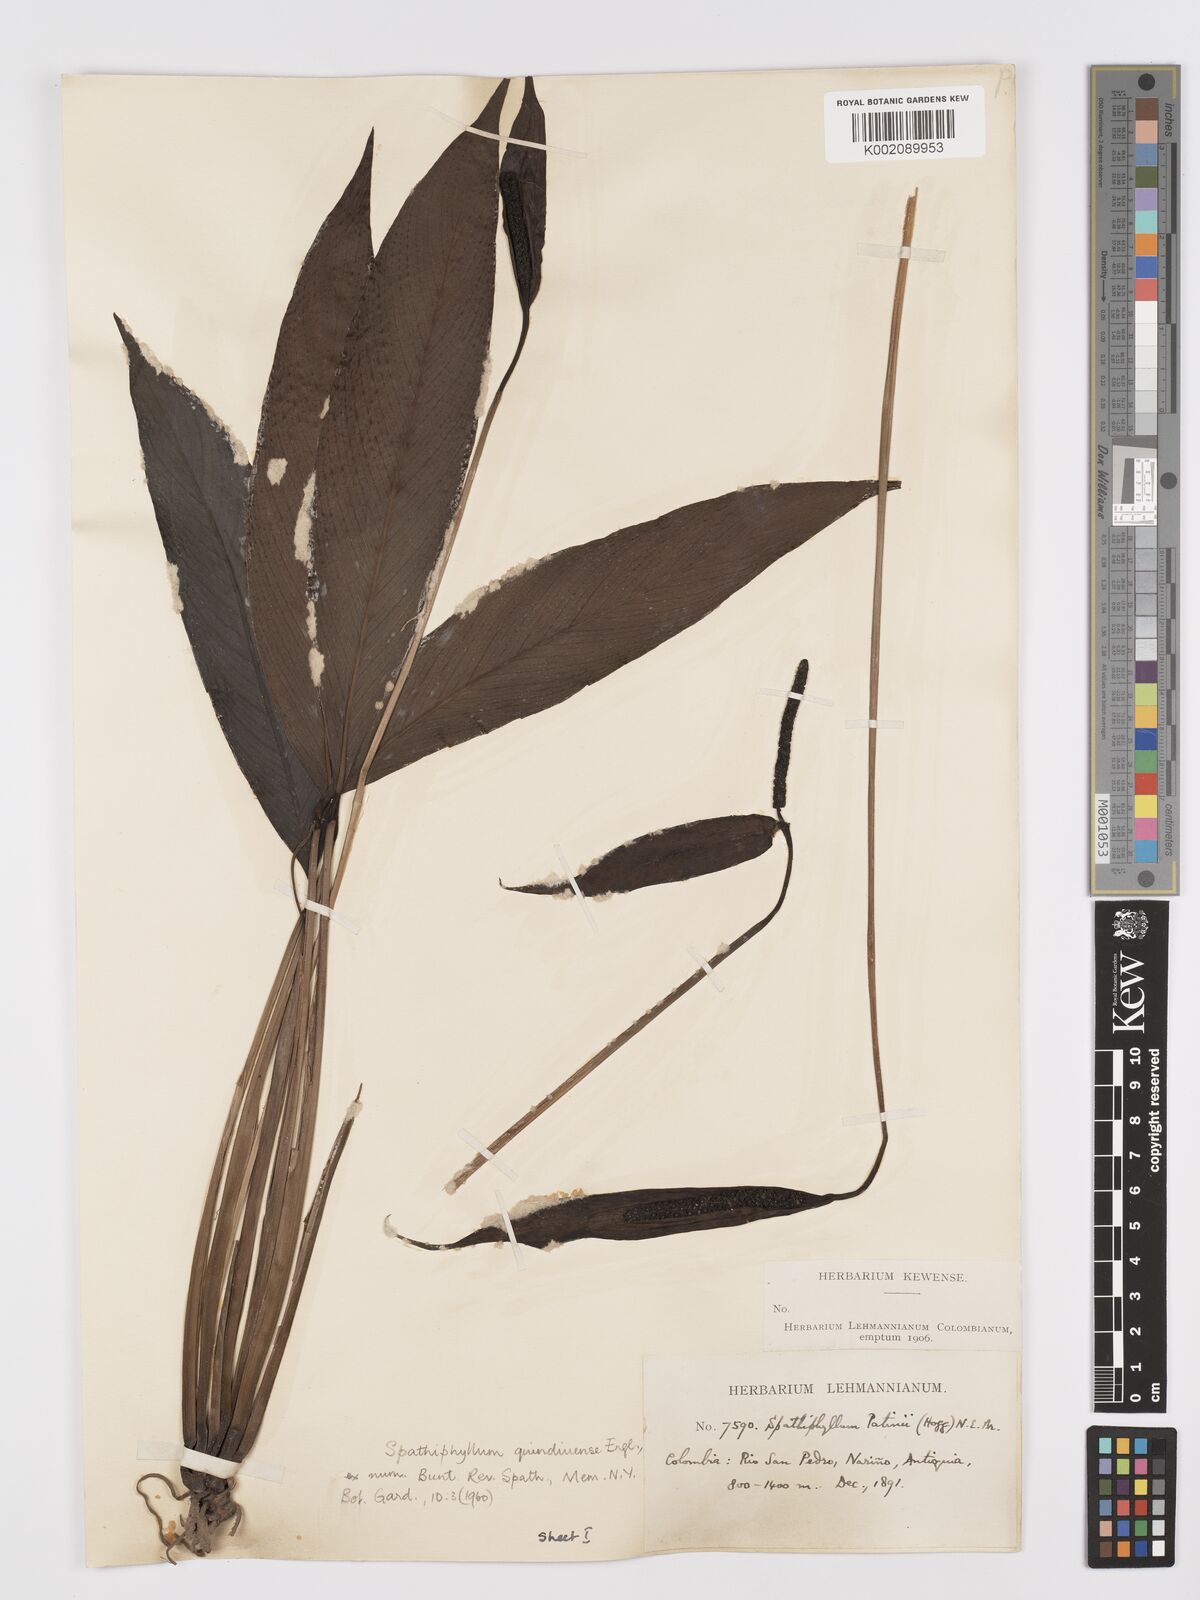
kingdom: Plantae
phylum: Tracheophyta
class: Liliopsida
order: Alismatales
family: Araceae
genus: Spathiphyllum
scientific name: Spathiphyllum quindiuense
